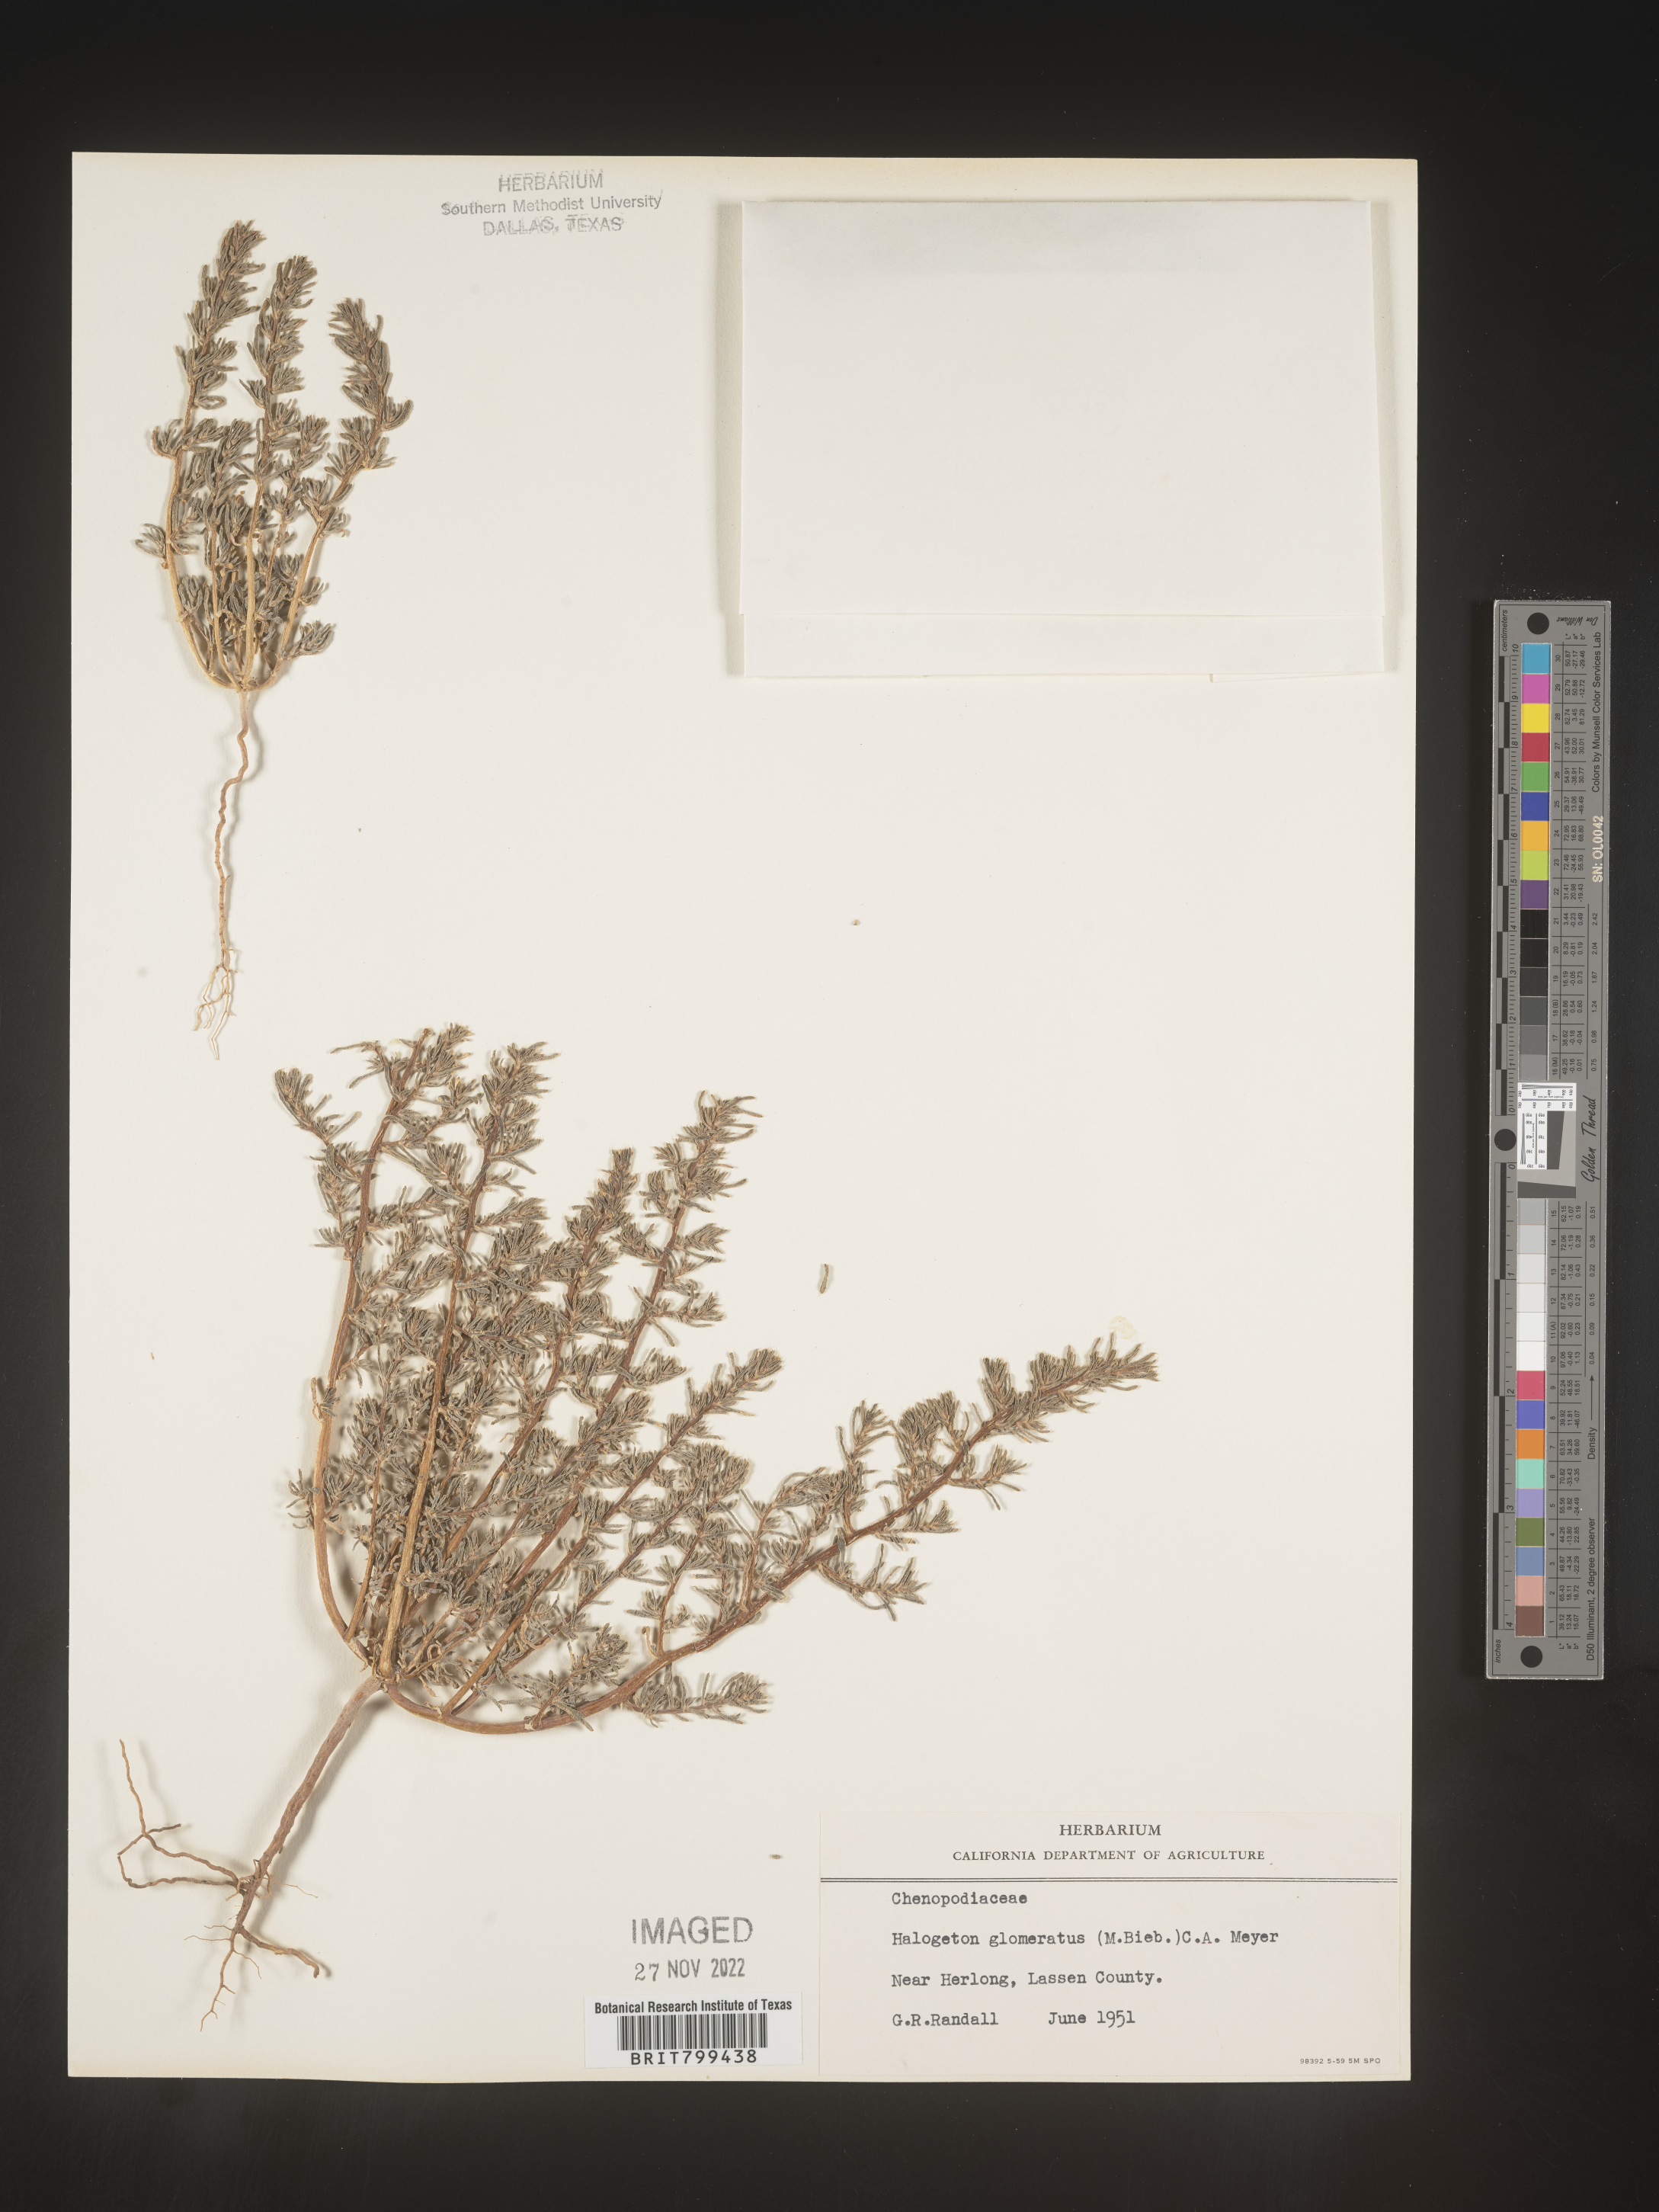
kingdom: Plantae
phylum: Tracheophyta
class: Magnoliopsida
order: Caryophyllales
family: Amaranthaceae
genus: Halogeton
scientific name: Halogeton glomeratus
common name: Saltlover
